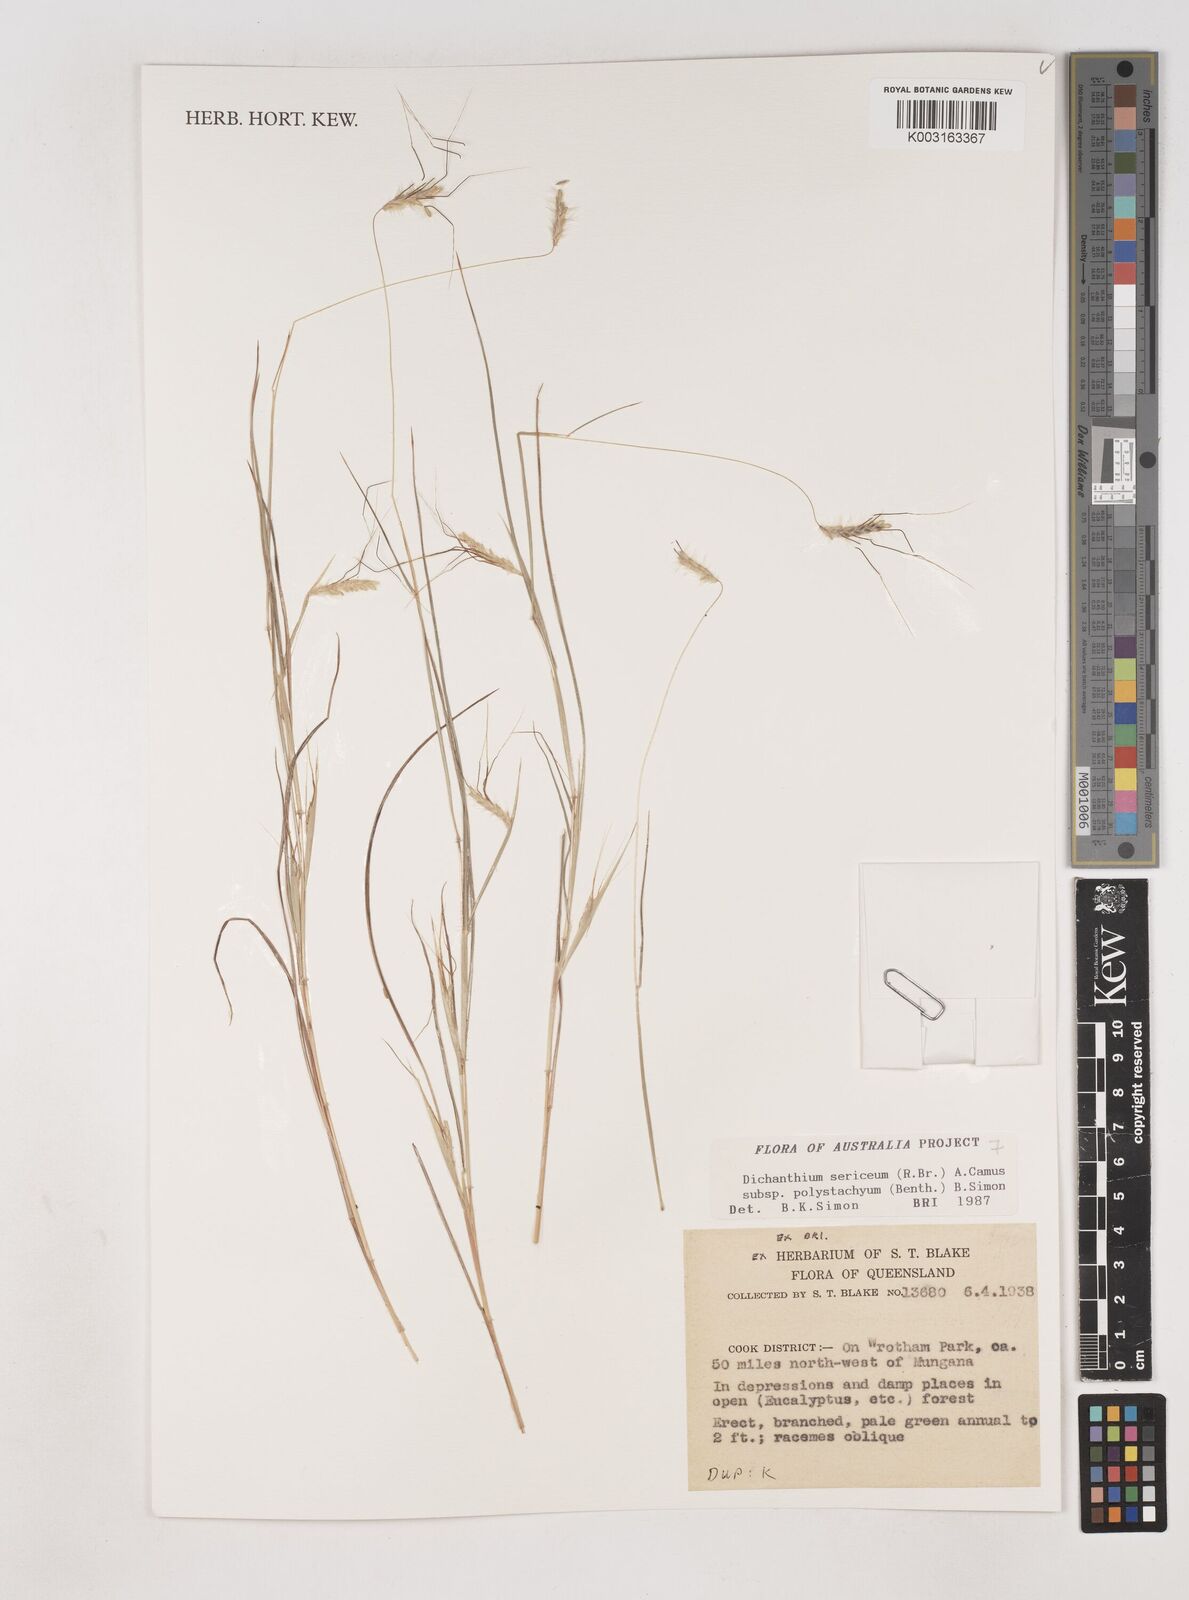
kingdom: Plantae
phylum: Tracheophyta
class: Liliopsida
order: Poales
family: Poaceae
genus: Dichanthium
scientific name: Dichanthium sericeum
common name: Silky bluestem
